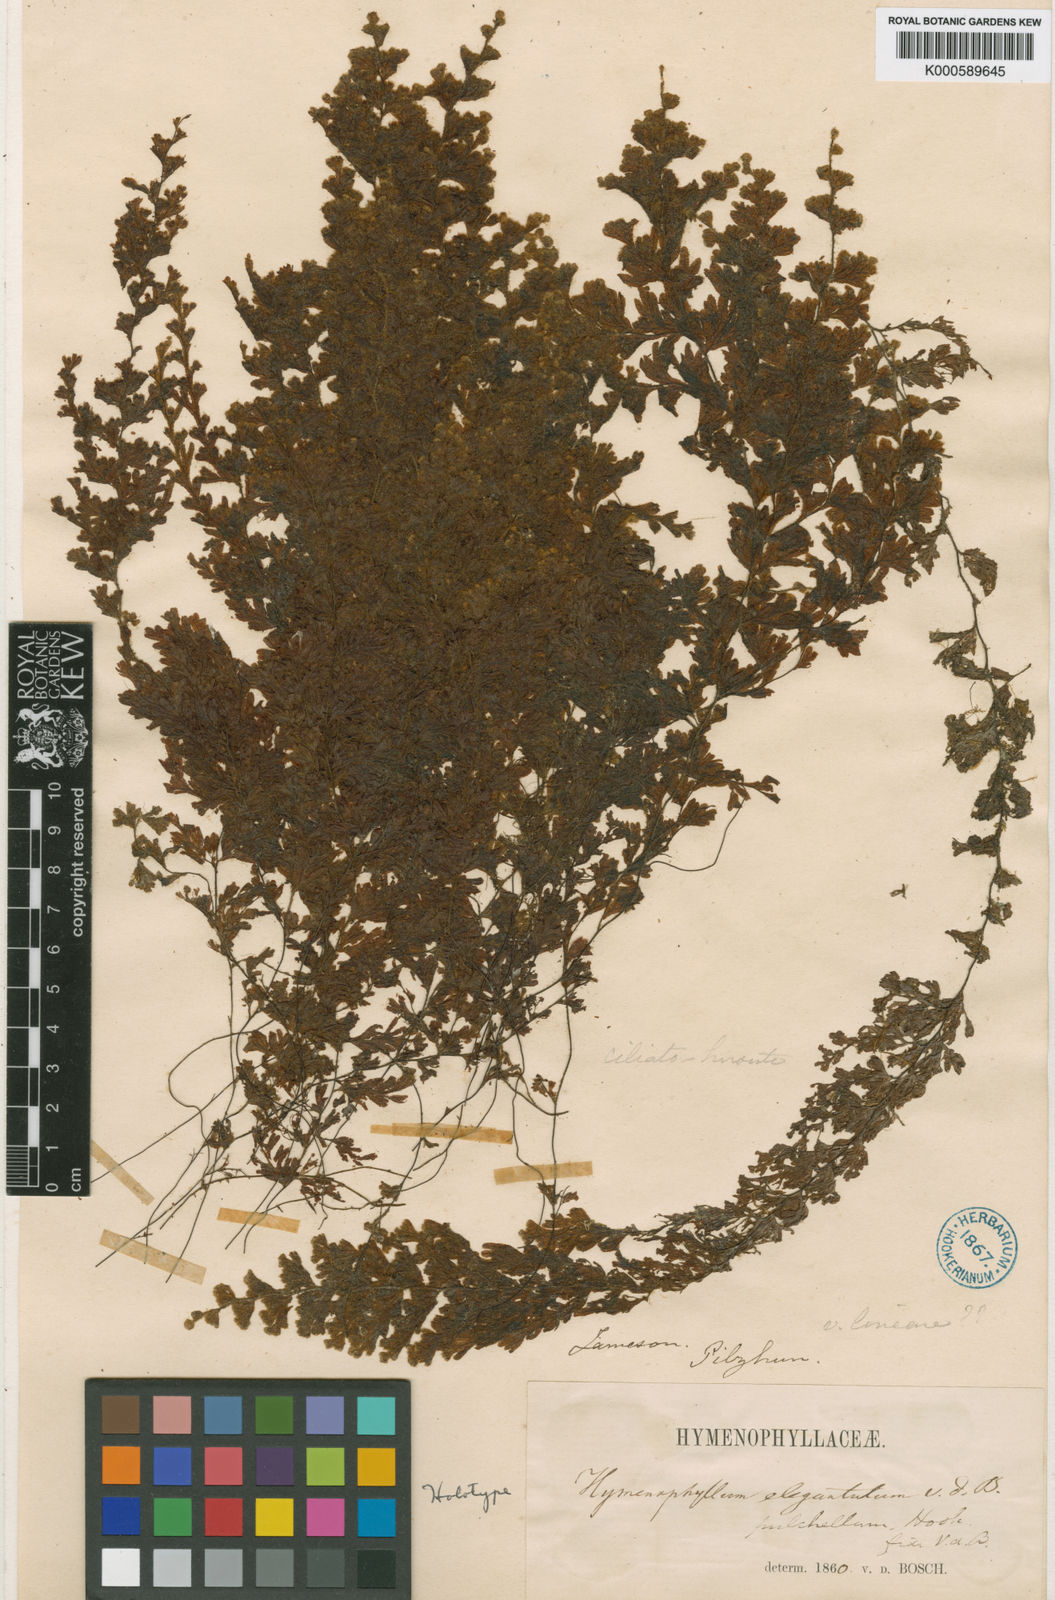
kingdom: Plantae
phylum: Tracheophyta
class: Polypodiopsida
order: Hymenophyllales
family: Hymenophyllaceae
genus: Hymenophyllum
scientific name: Hymenophyllum tegularis
